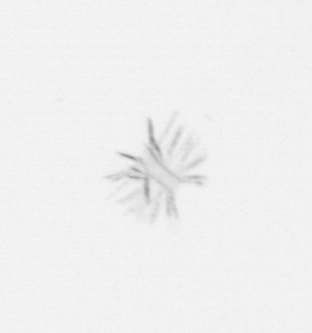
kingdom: Chromista
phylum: Ochrophyta
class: Bacillariophyceae
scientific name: Bacillariophyceae
